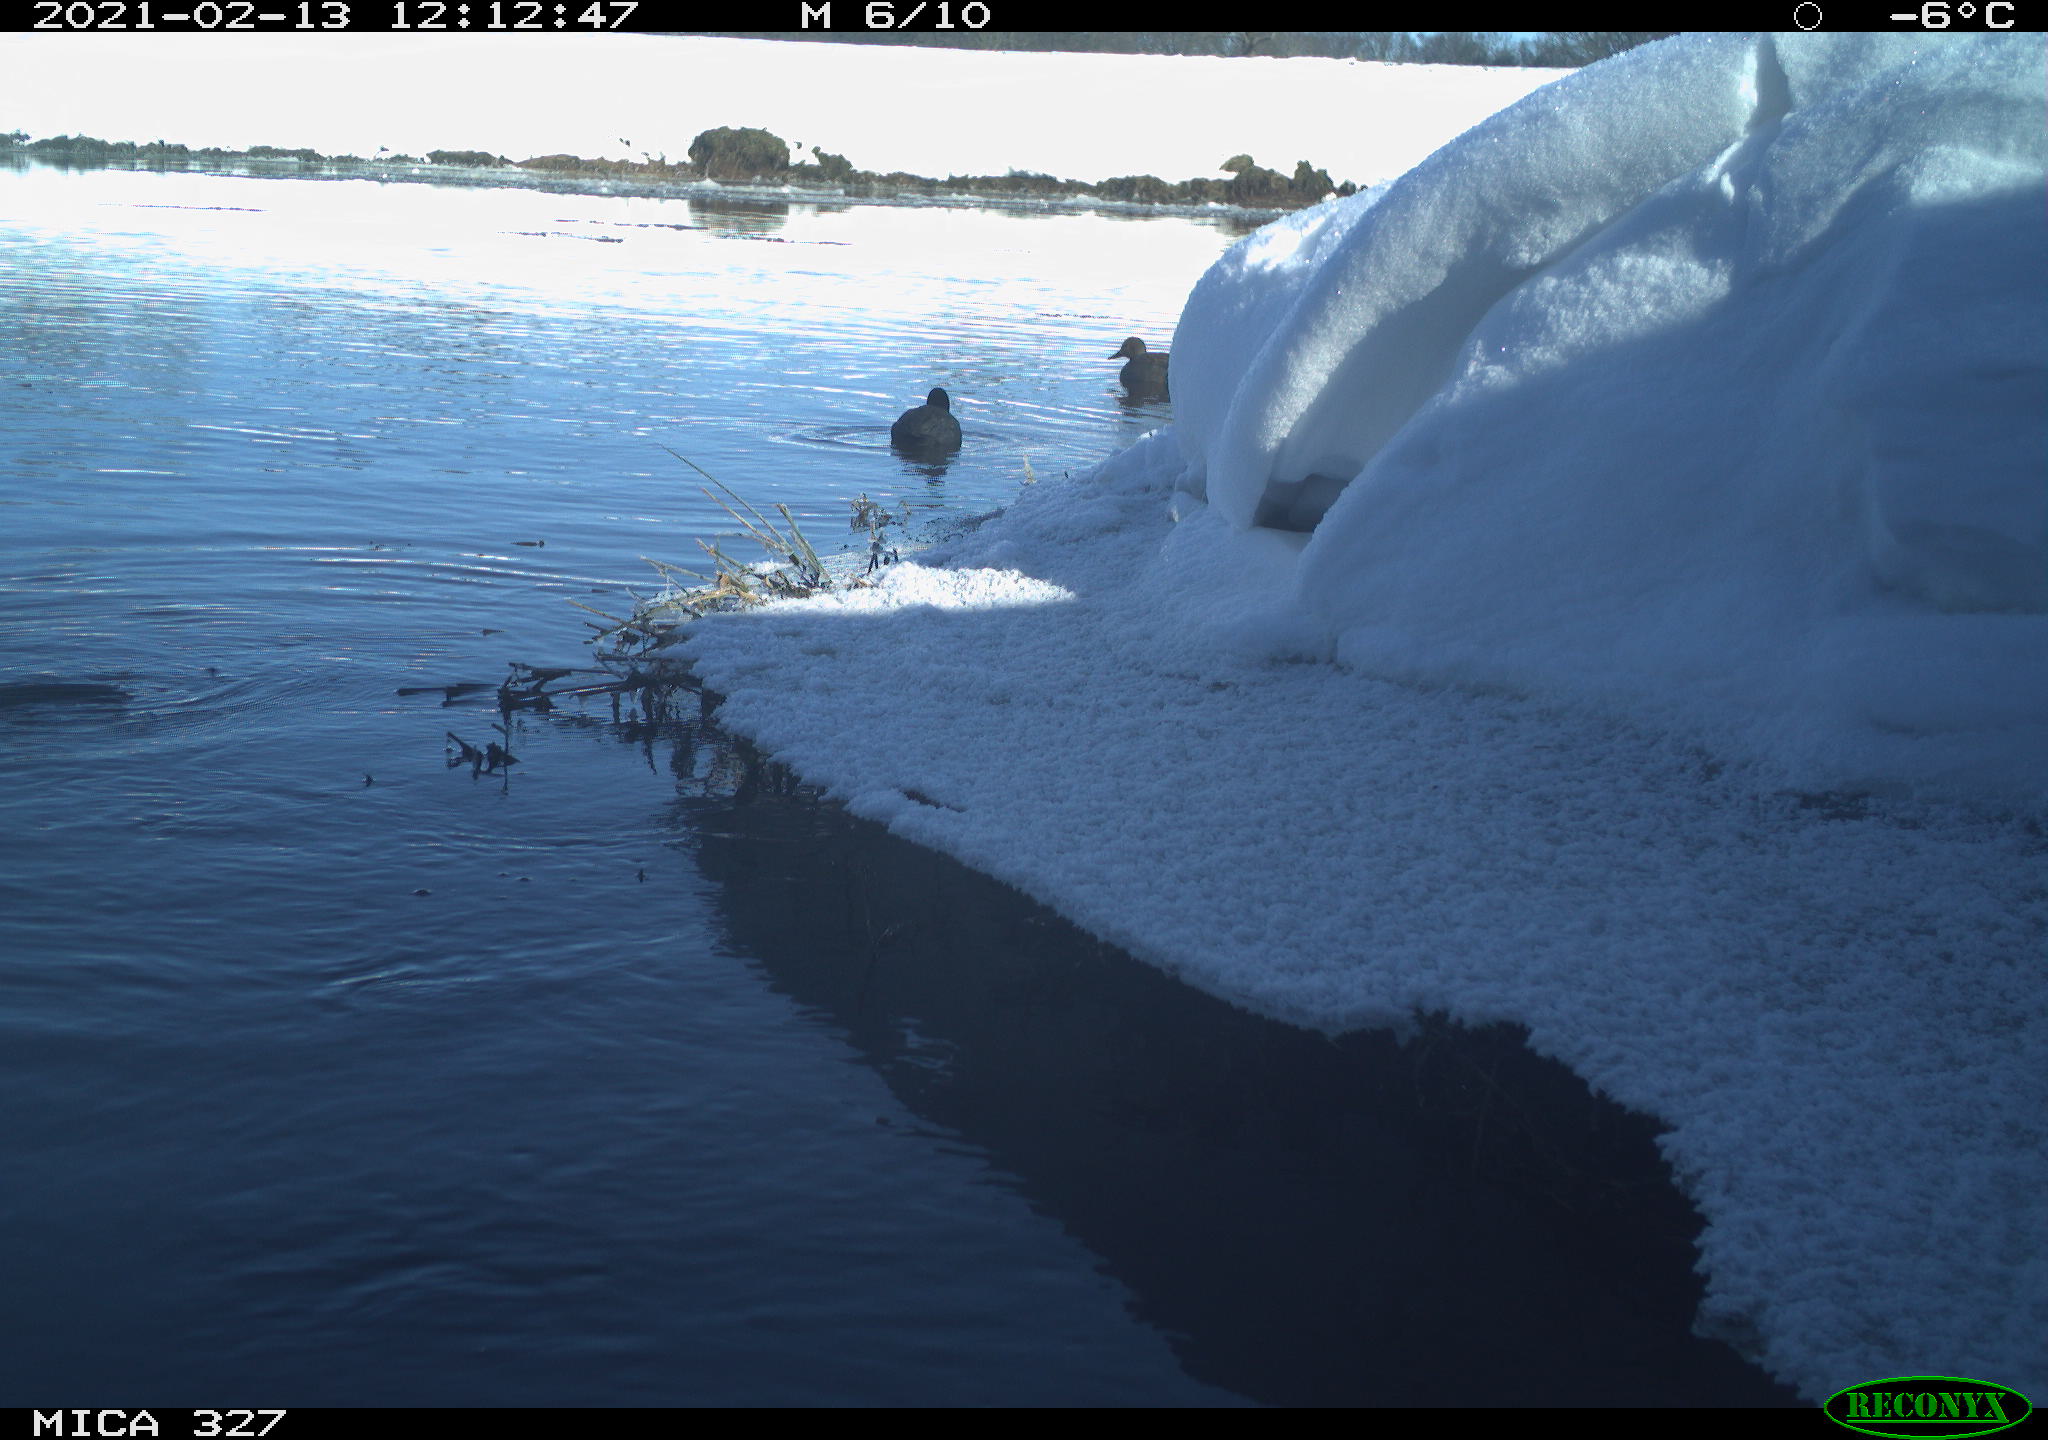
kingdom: Animalia
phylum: Chordata
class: Aves
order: Anseriformes
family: Anatidae
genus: Anas
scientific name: Anas
